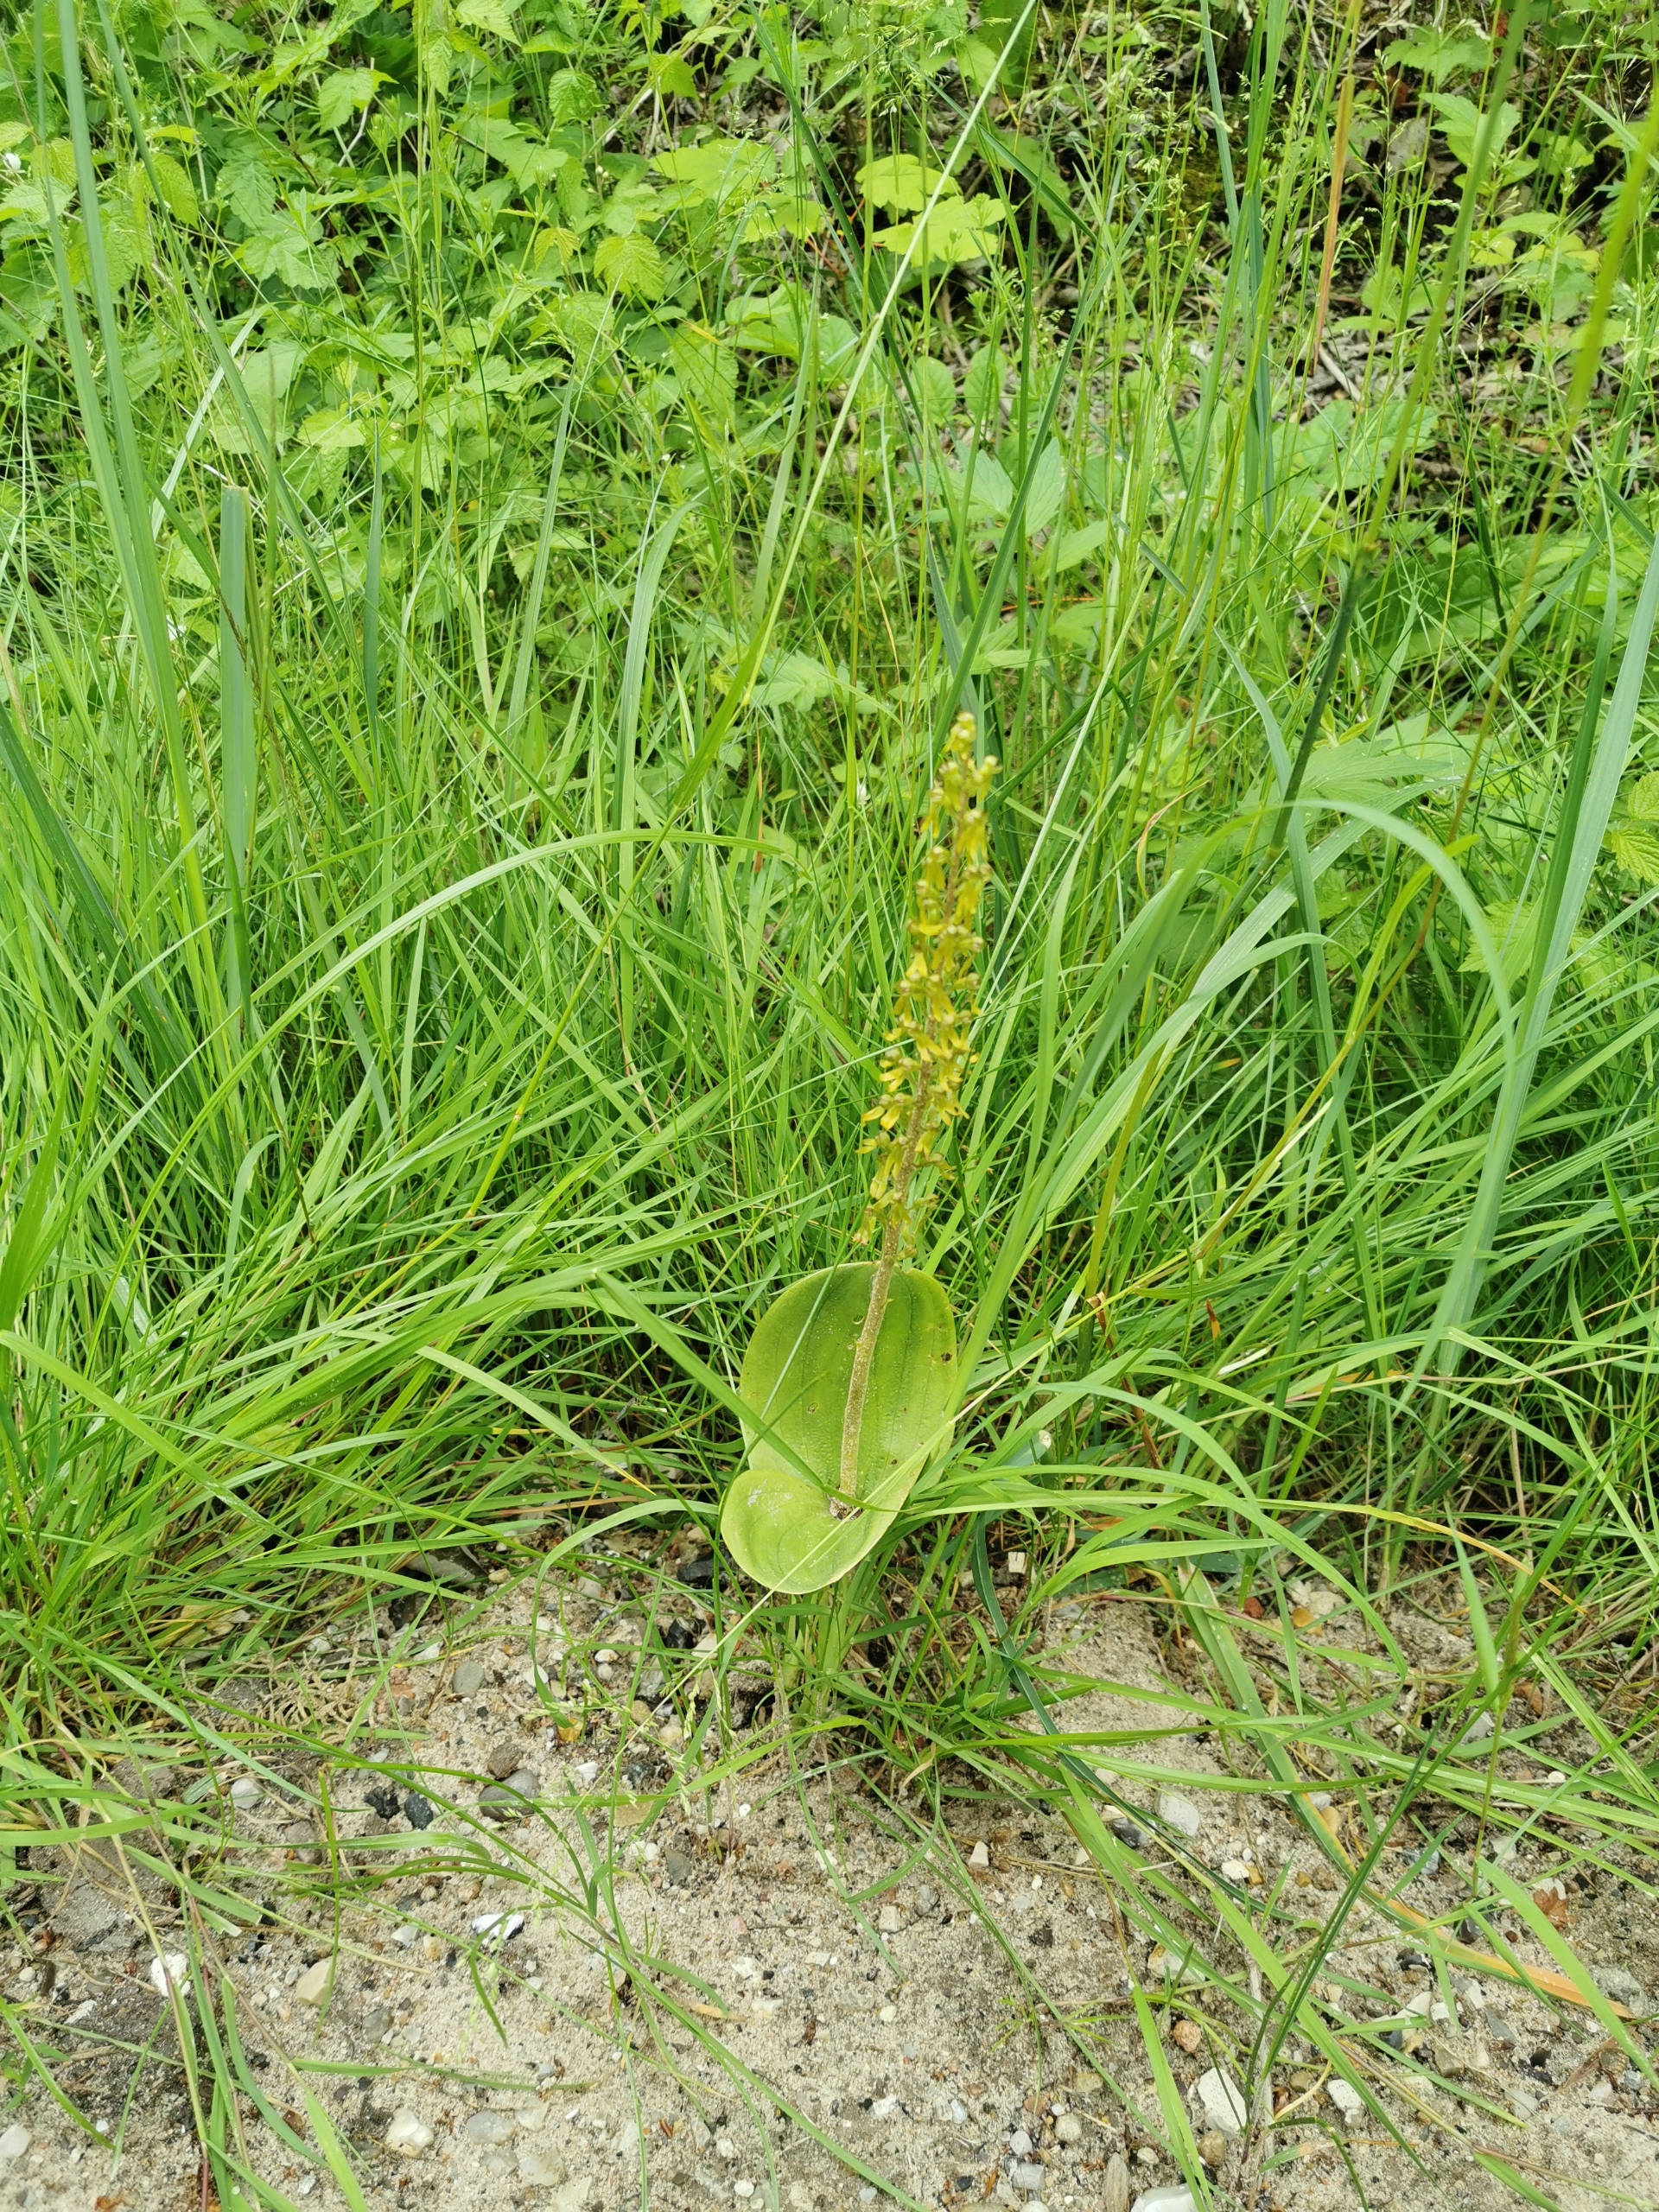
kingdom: Plantae
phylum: Tracheophyta
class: Liliopsida
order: Asparagales
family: Orchidaceae
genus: Neottia
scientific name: Neottia ovata
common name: Ægbladet fliglæbe
